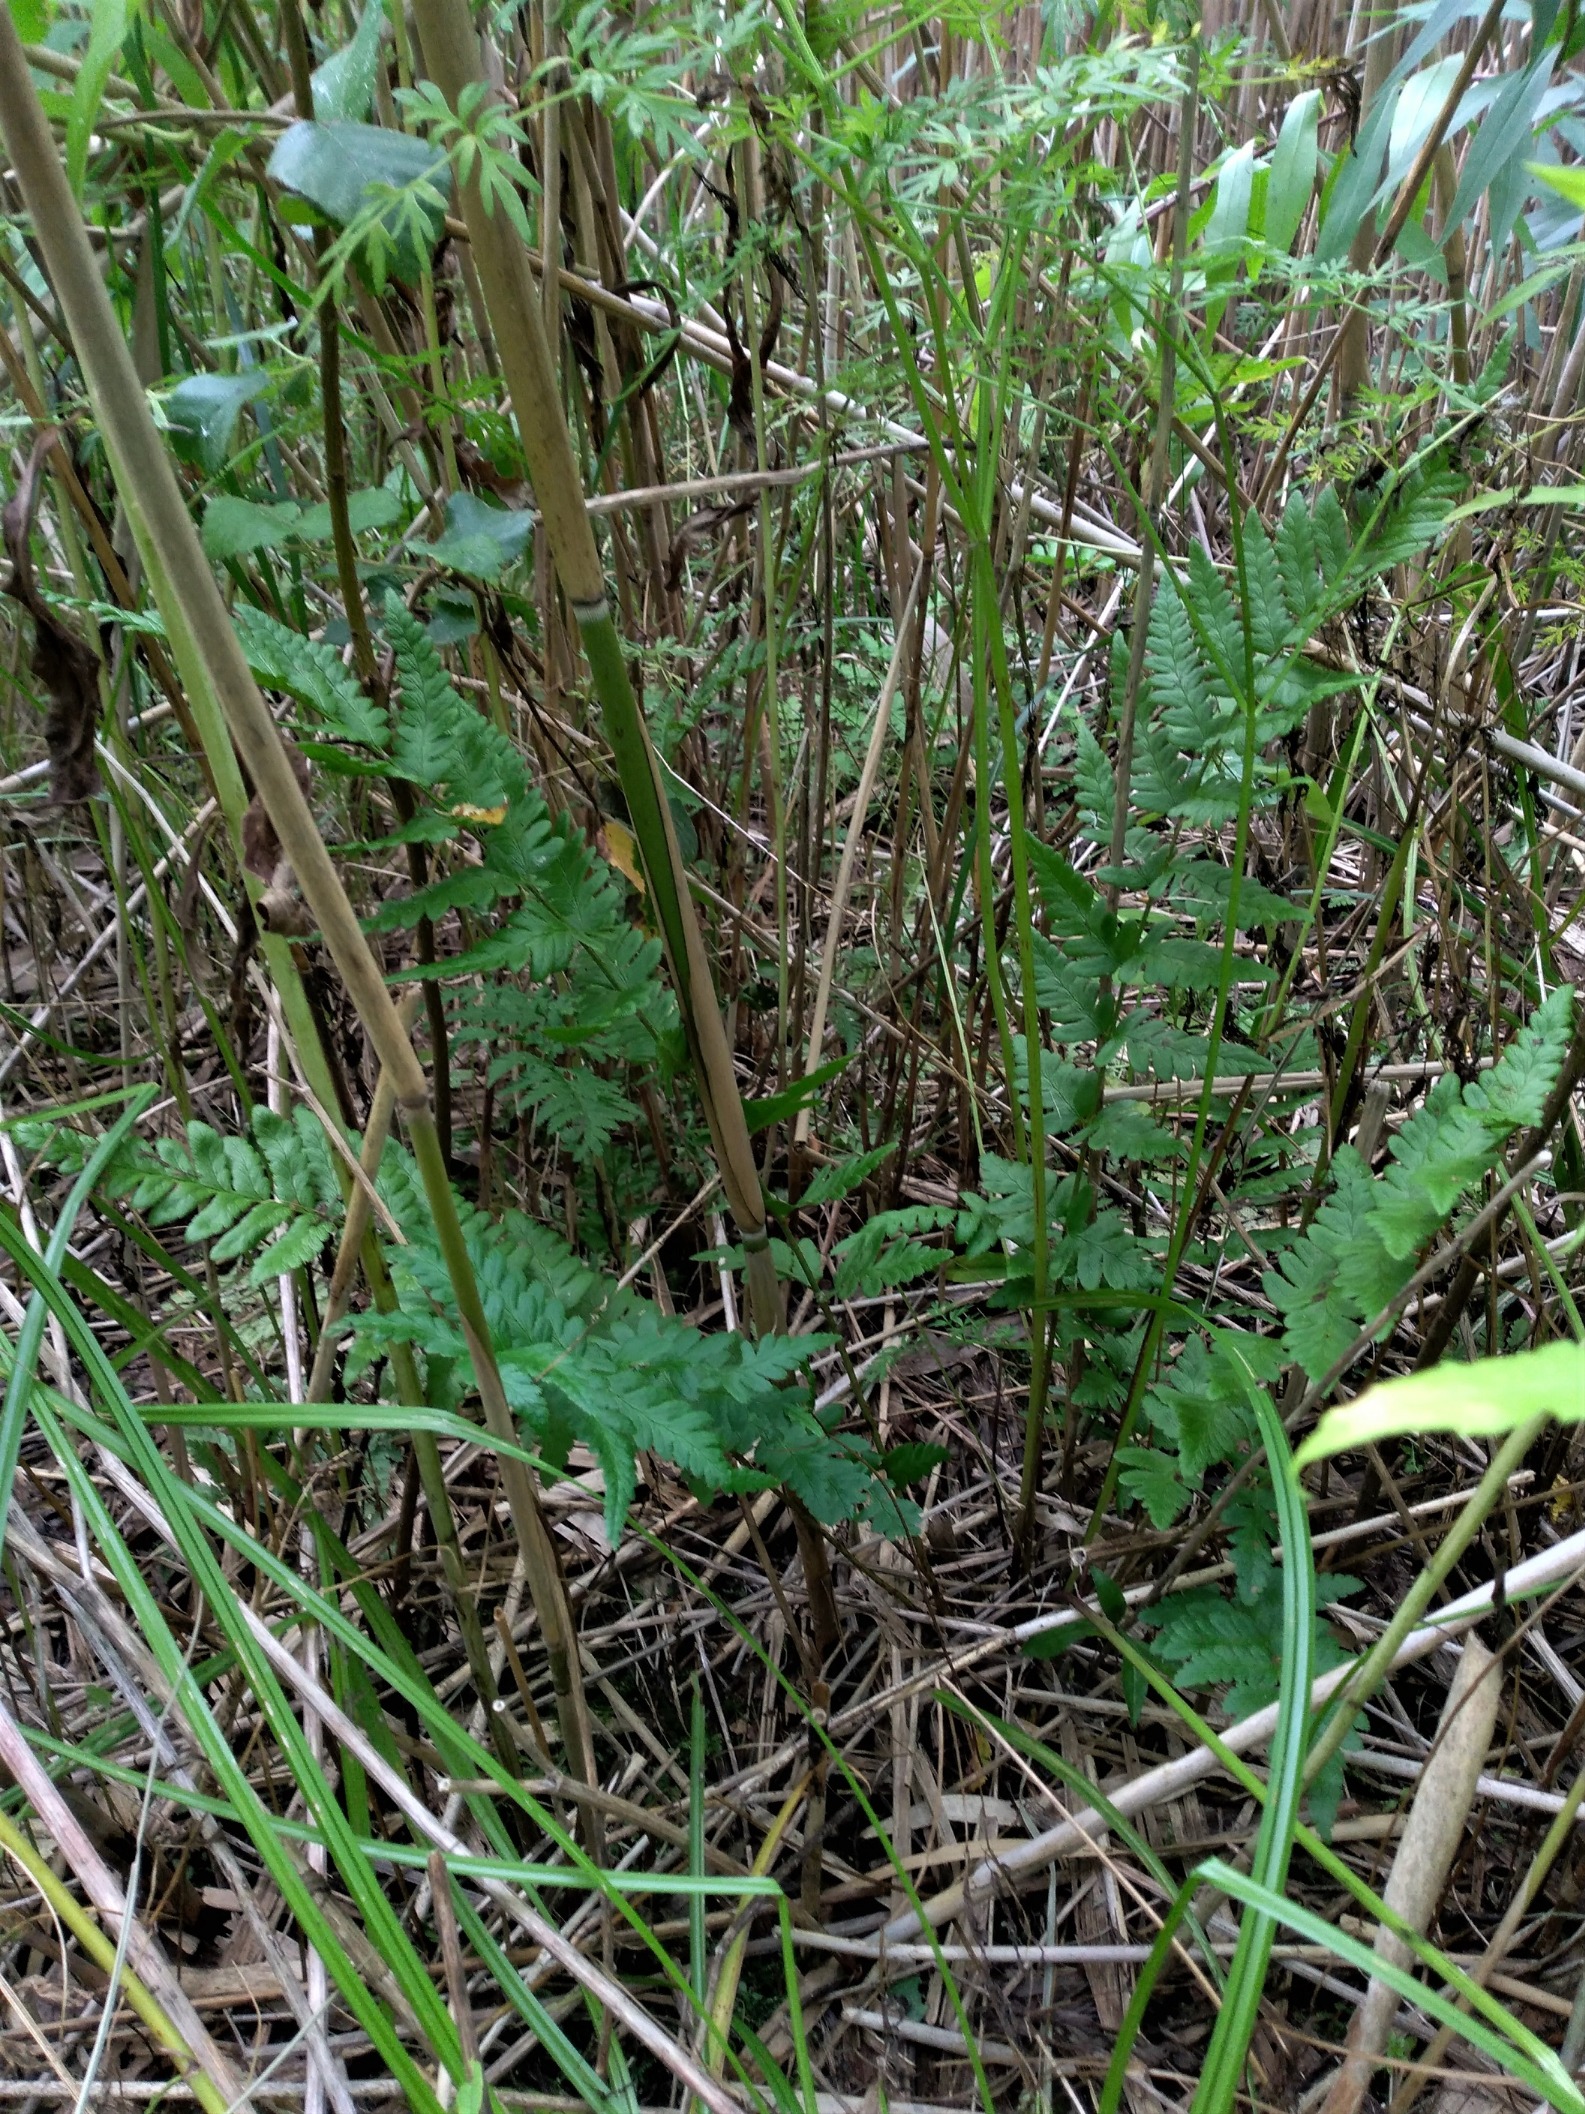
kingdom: Plantae
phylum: Tracheophyta
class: Polypodiopsida
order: Polypodiales
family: Dryopteridaceae
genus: Dryopteris
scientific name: Dryopteris cristata
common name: Butfinnet mangeløv
